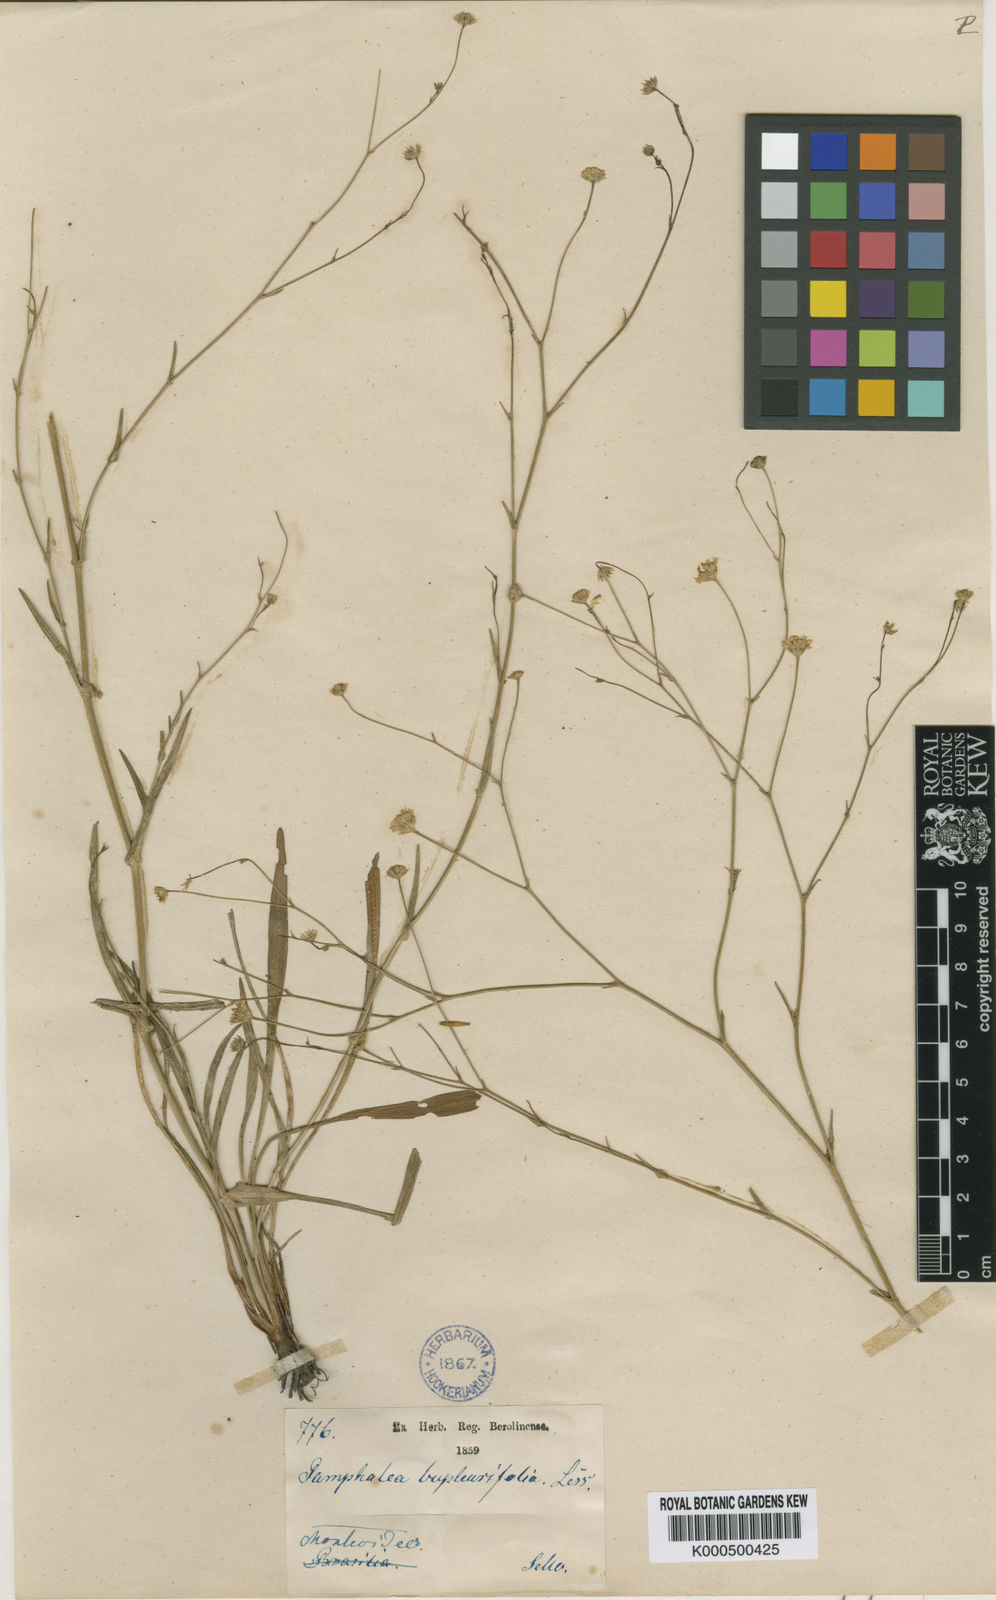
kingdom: Plantae
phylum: Tracheophyta
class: Magnoliopsida
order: Asterales
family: Asteraceae
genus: Panphalea
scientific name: Panphalea bupleurifolia
